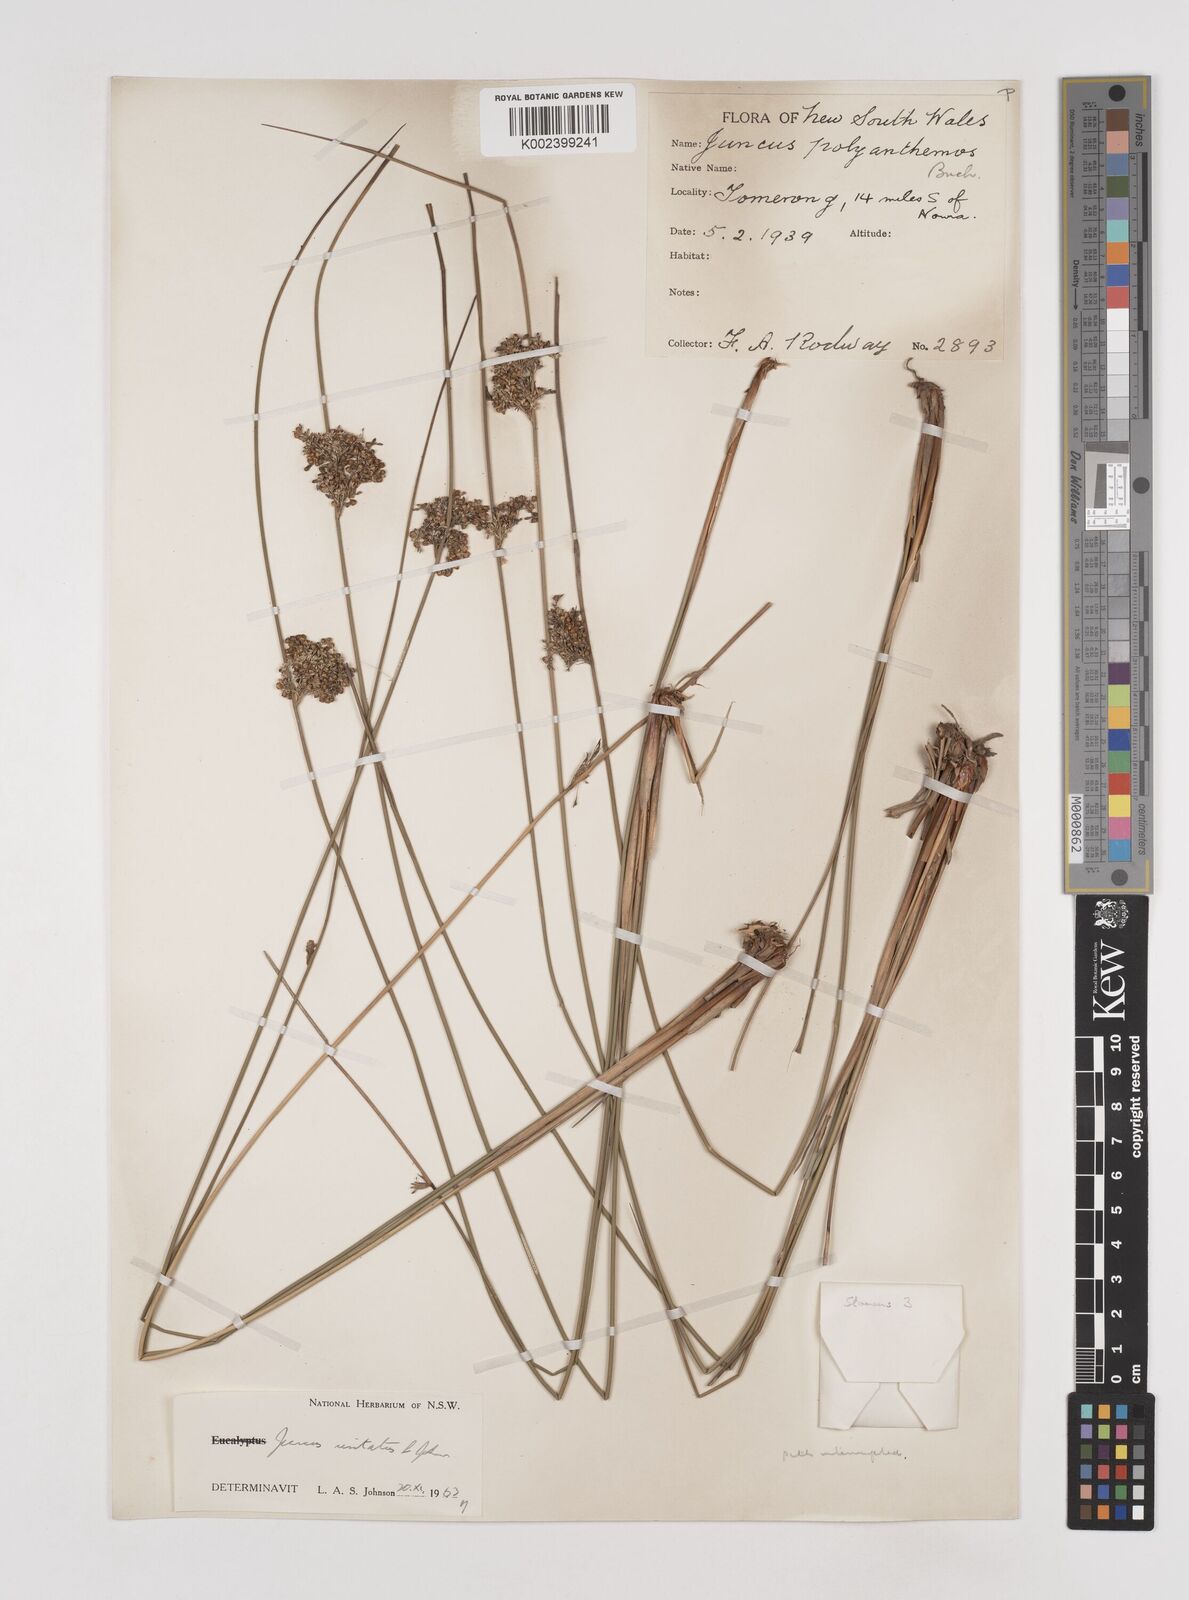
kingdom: Plantae
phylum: Tracheophyta
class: Liliopsida
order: Poales
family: Juncaceae
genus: Juncus
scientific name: Juncus usitatus
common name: Rush
